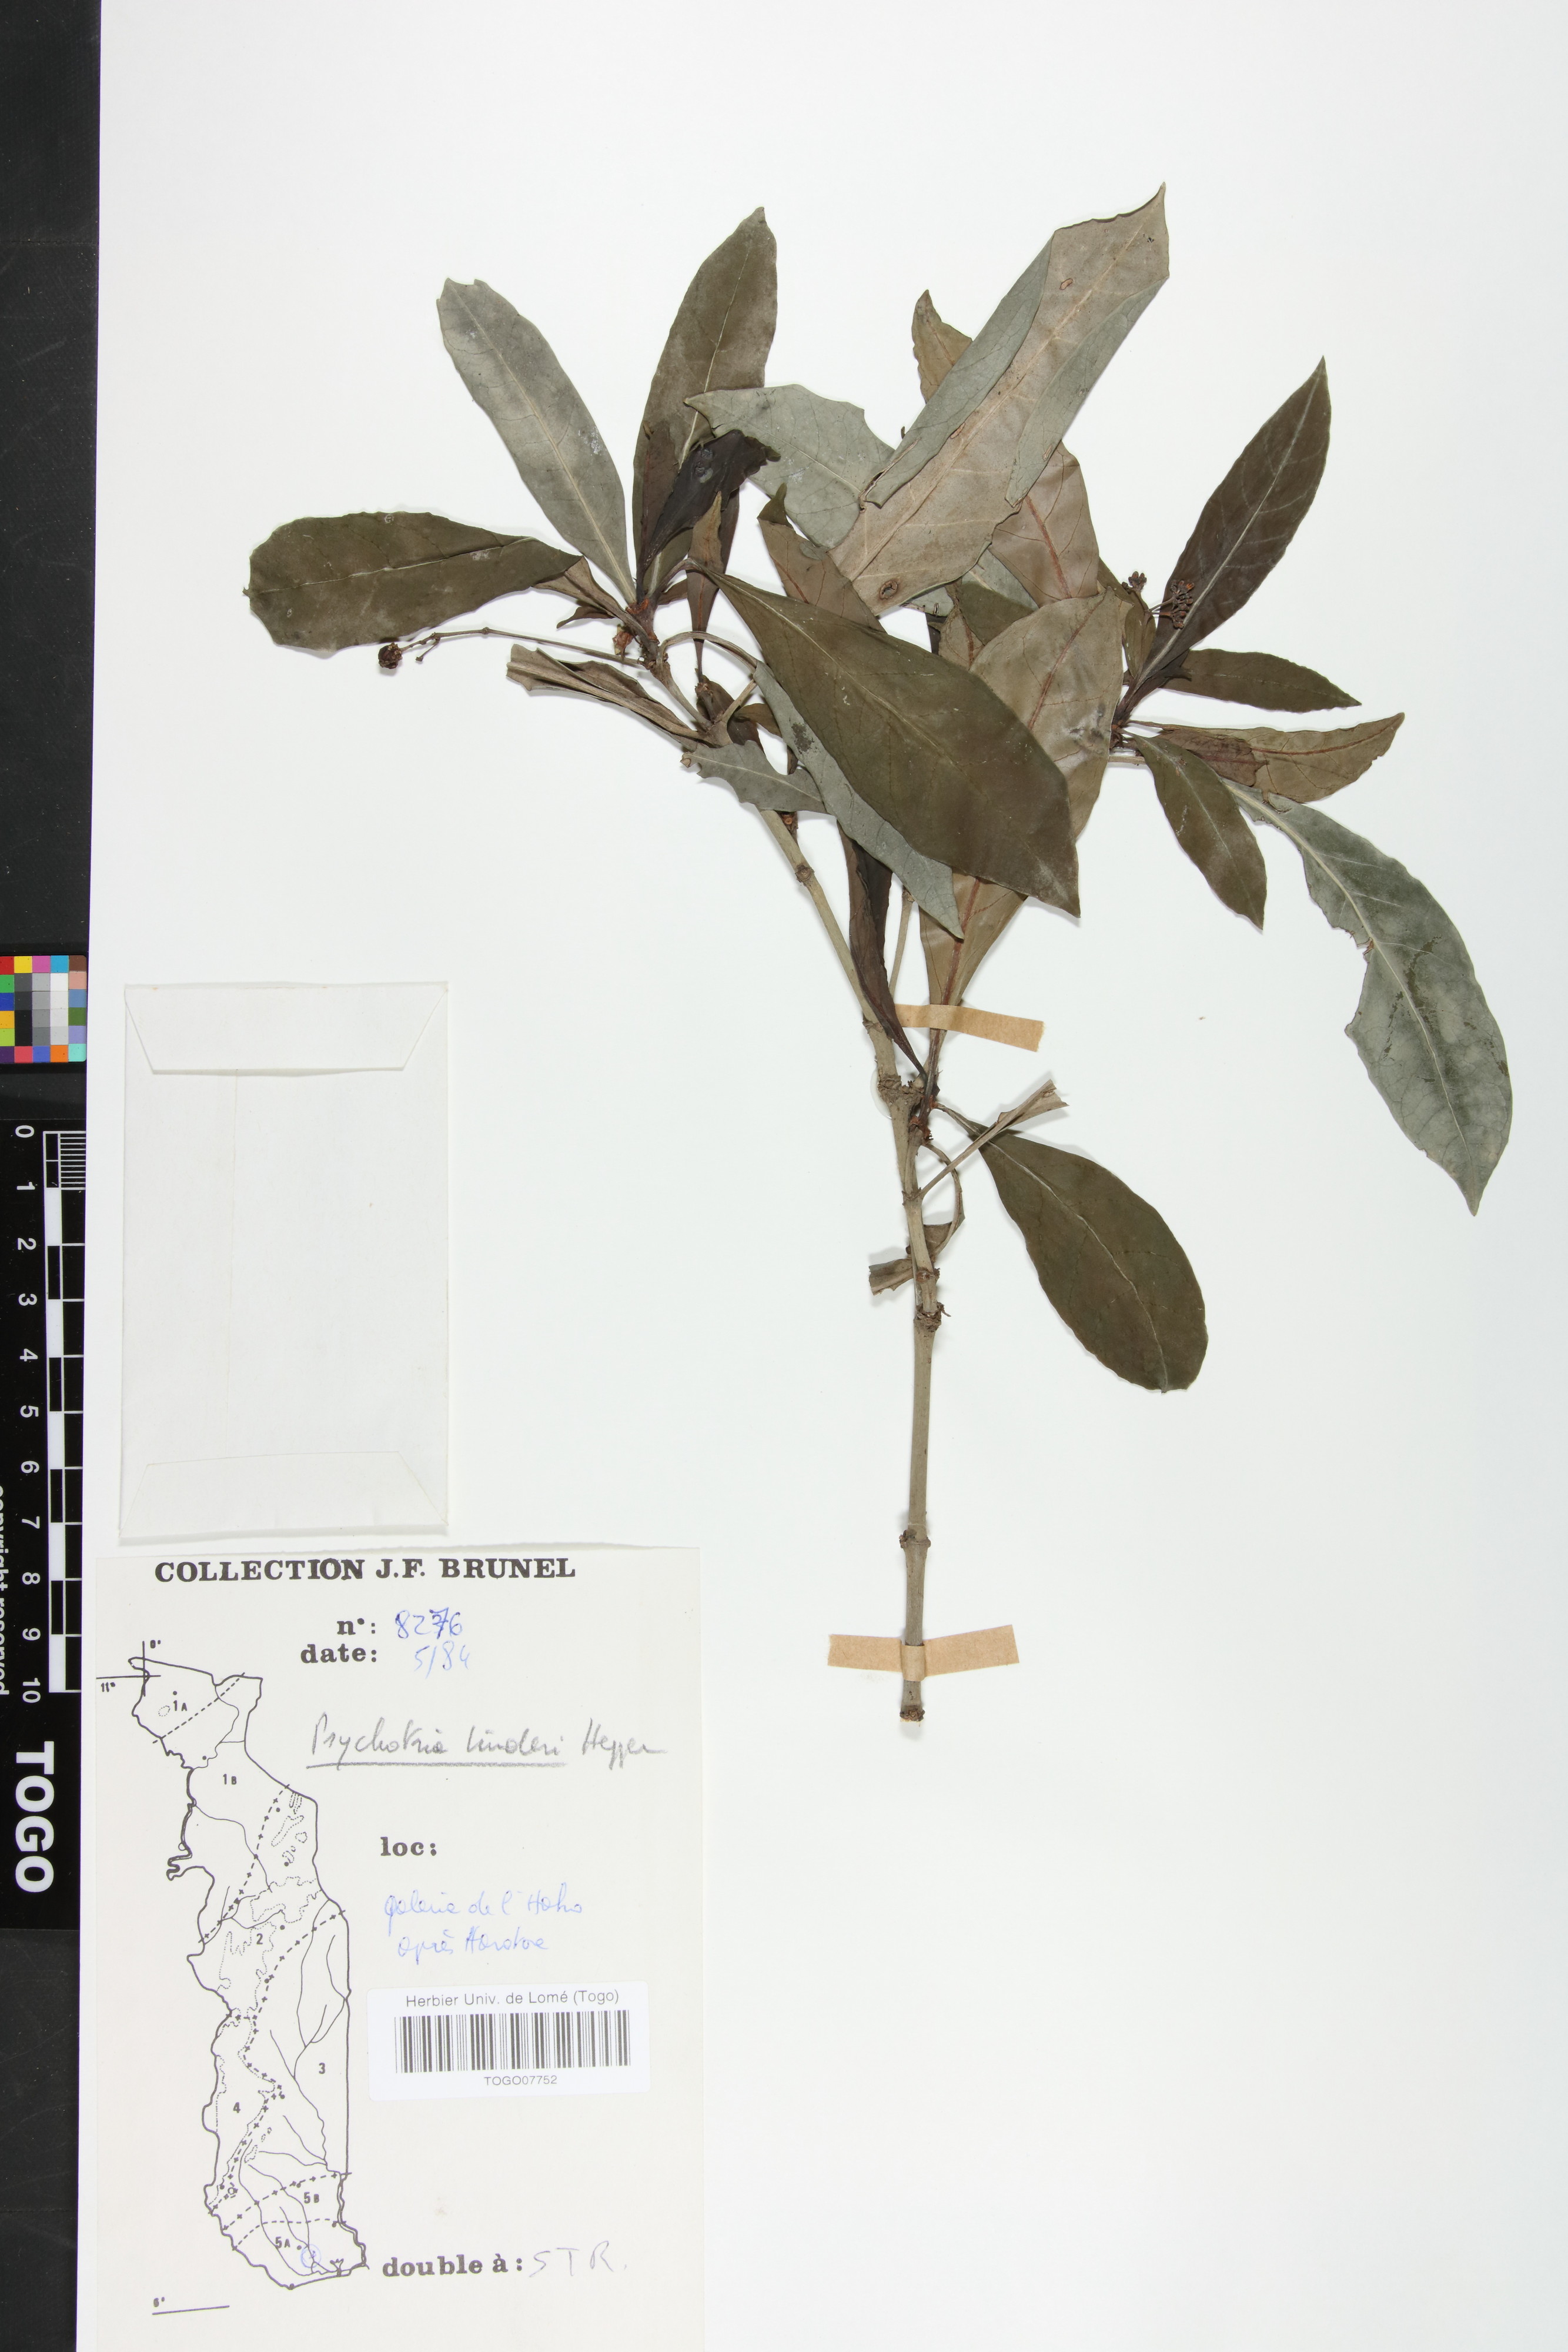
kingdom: Plantae
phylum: Tracheophyta
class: Magnoliopsida
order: Gentianales
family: Rubiaceae
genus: Psychotria
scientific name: Psychotria linderi
